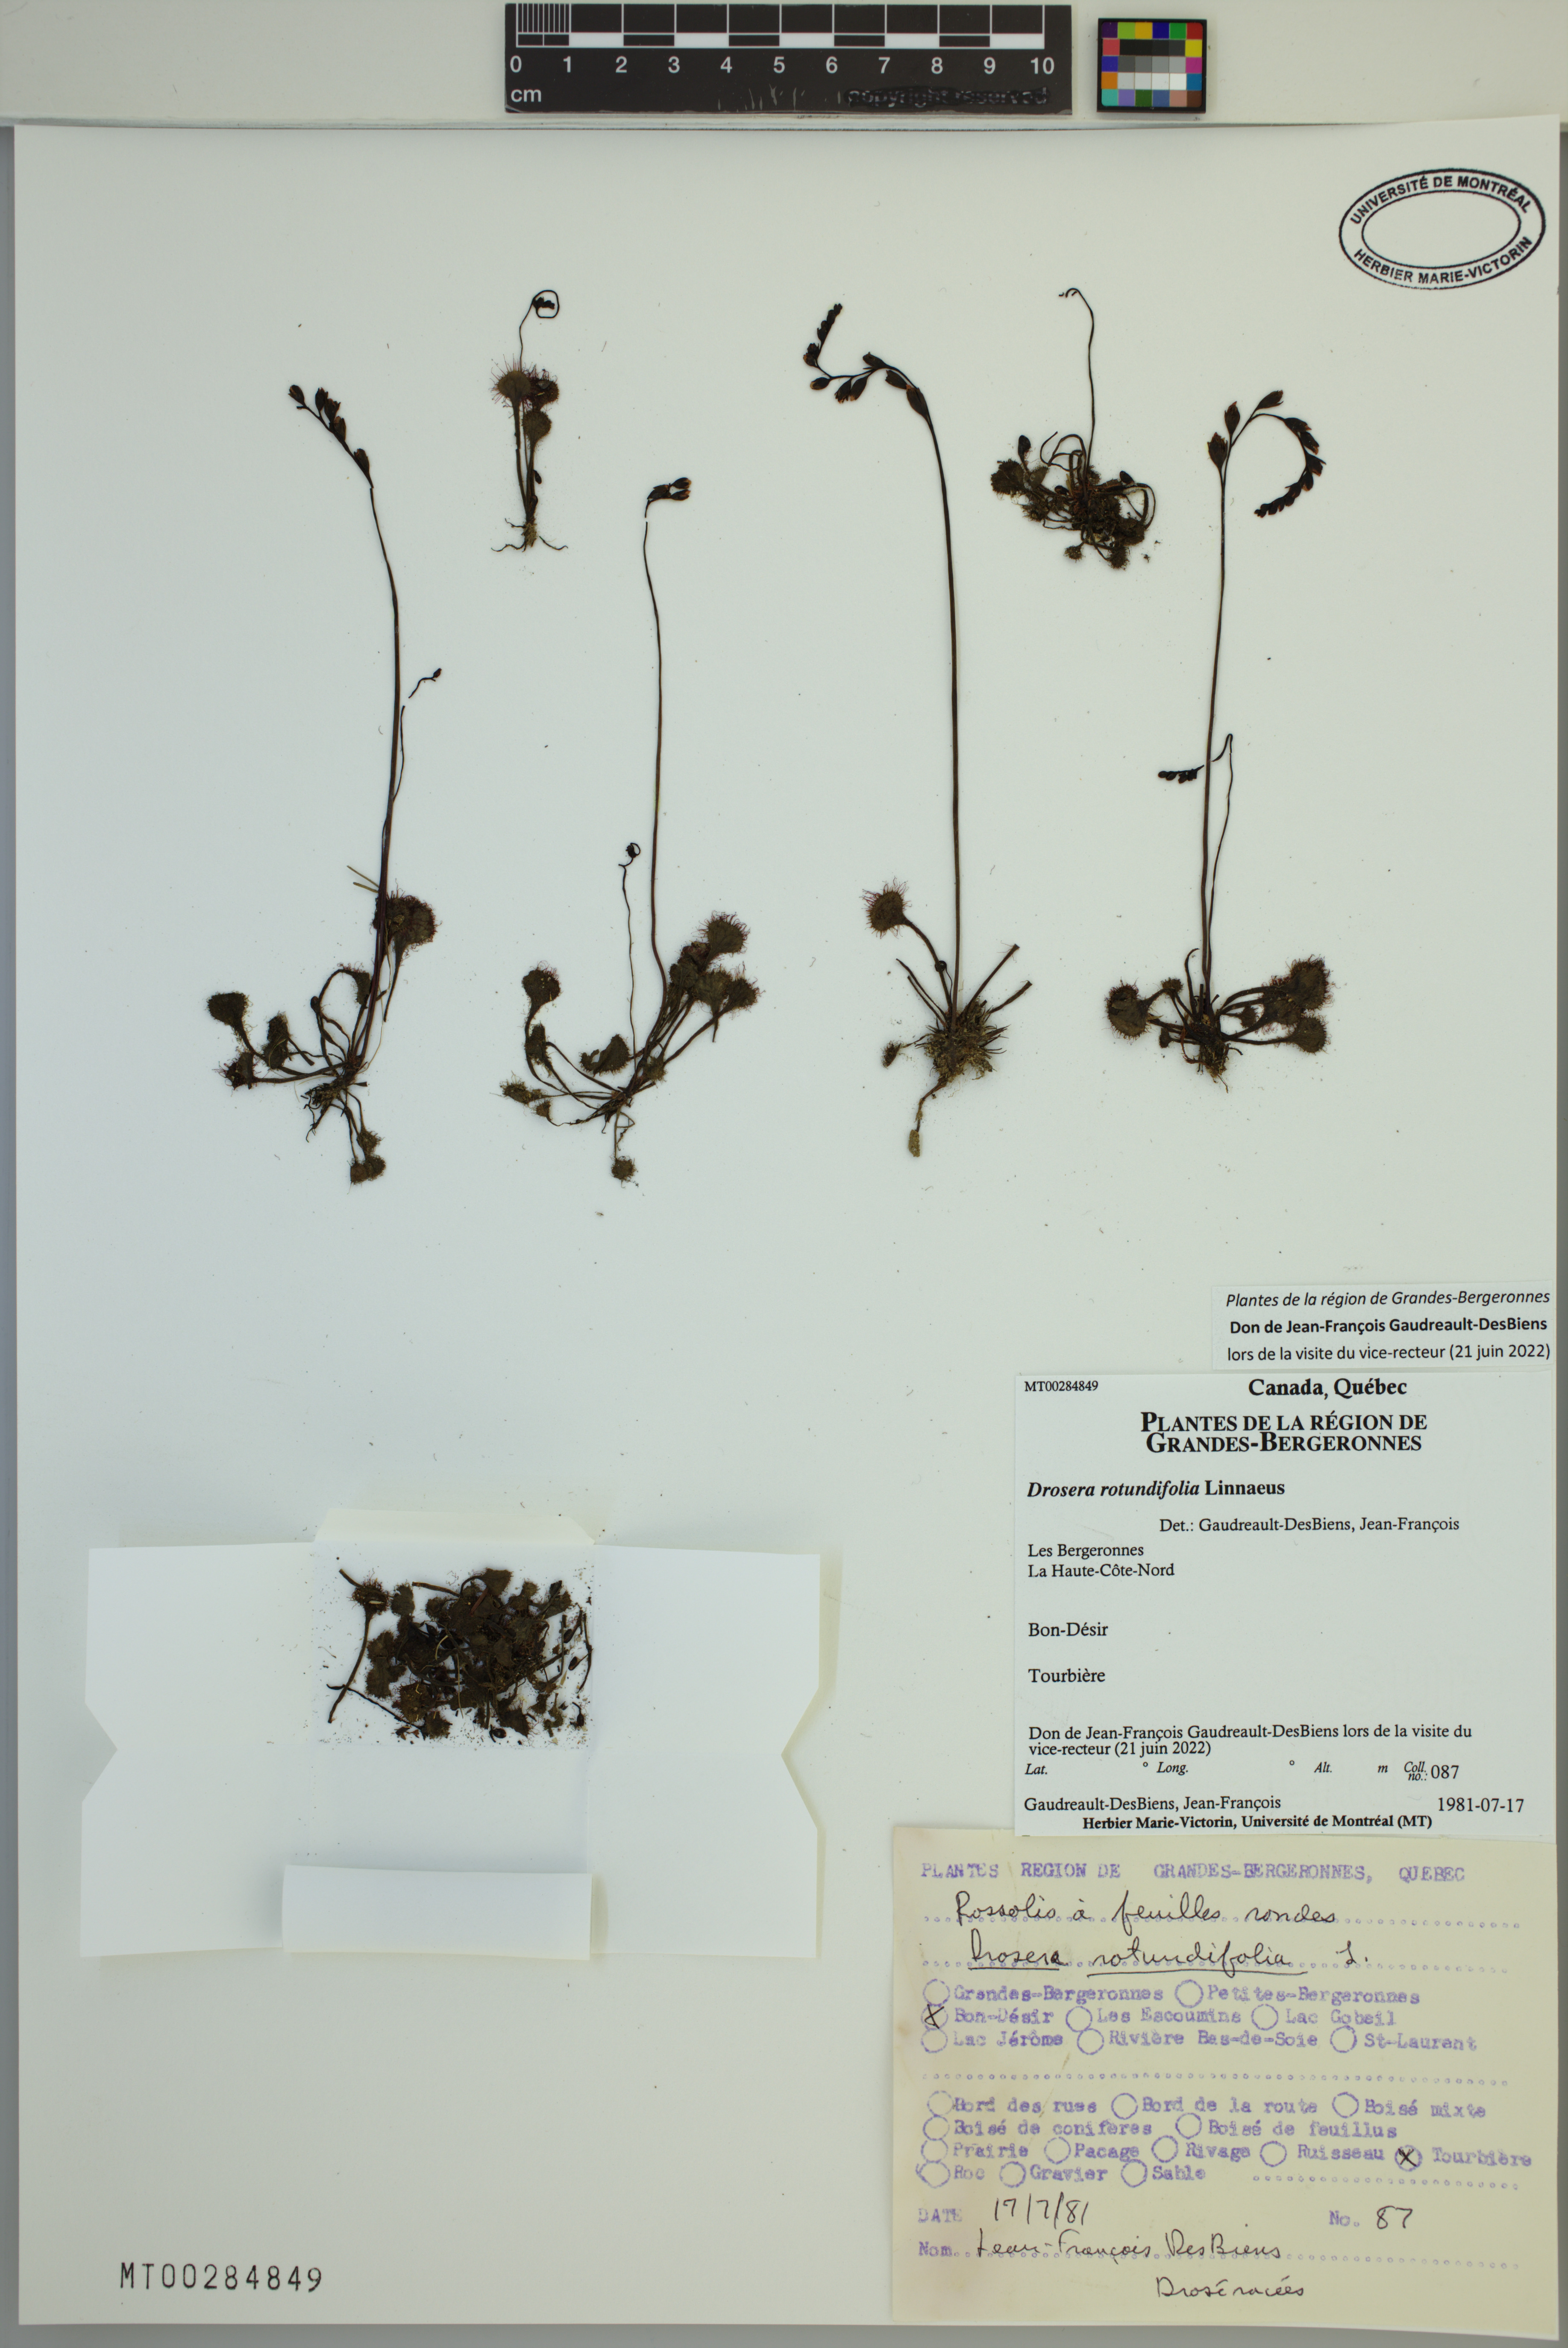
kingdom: Plantae
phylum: Tracheophyta
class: Magnoliopsida
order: Caryophyllales
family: Droseraceae
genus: Drosera
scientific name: Drosera rotundifolia
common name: Round-leaved sundew
